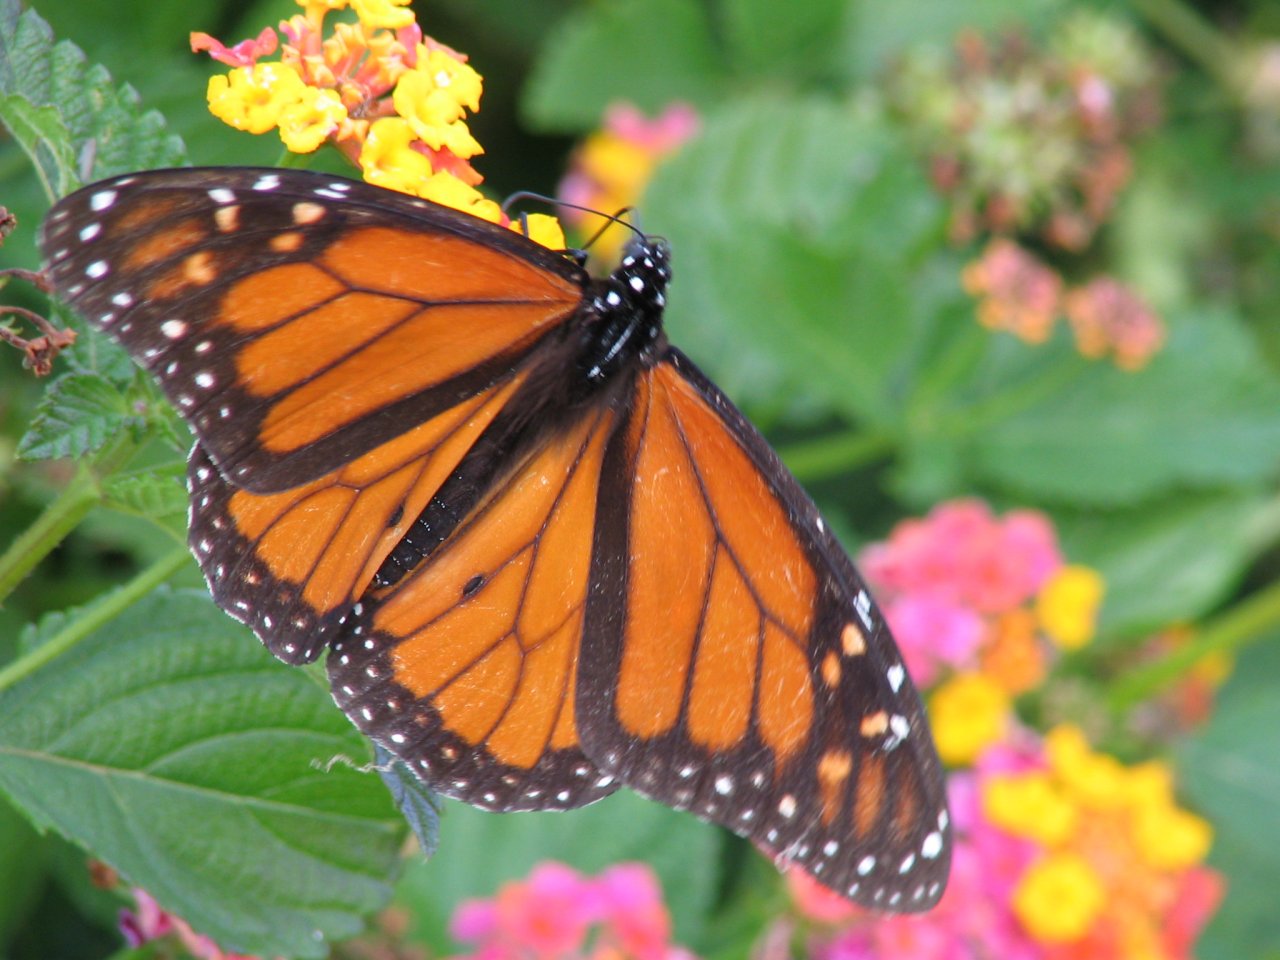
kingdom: Animalia
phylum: Arthropoda
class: Insecta
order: Lepidoptera
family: Nymphalidae
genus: Danaus
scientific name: Danaus plexippus
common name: Monarch
